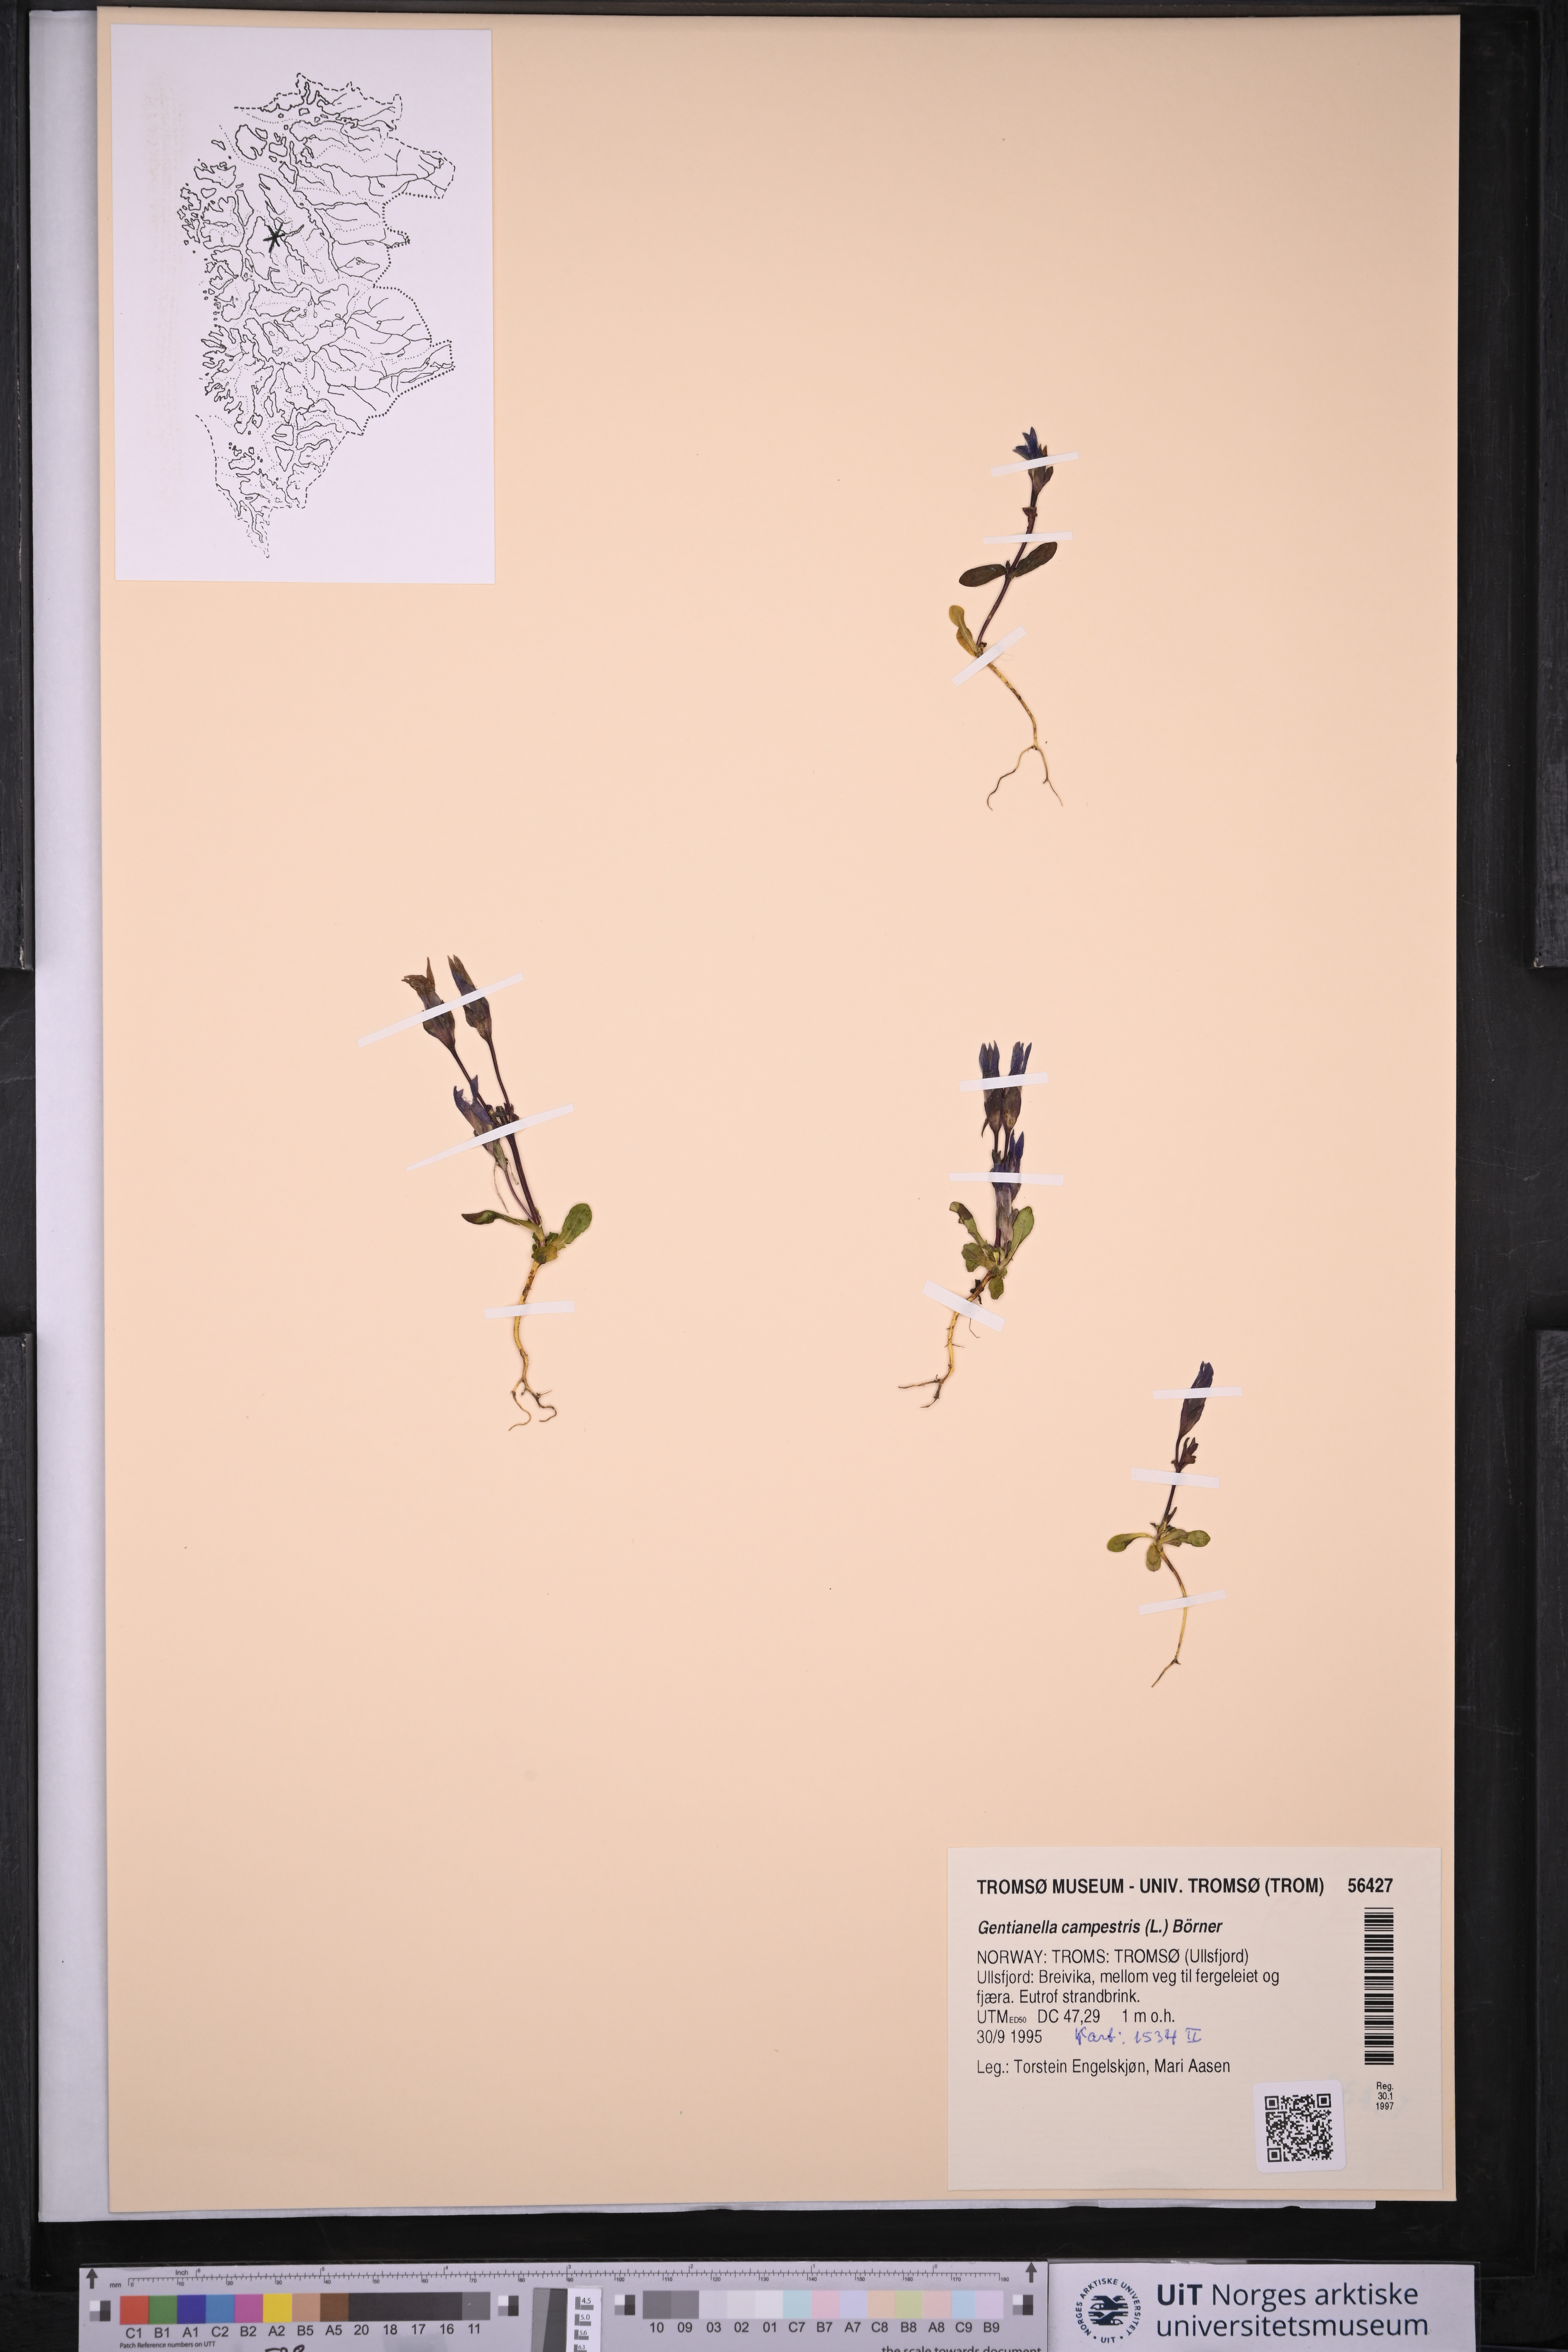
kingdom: Plantae
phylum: Tracheophyta
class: Magnoliopsida
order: Gentianales
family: Gentianaceae
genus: Gentianella
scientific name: Gentianella campestris
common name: Field gentian
